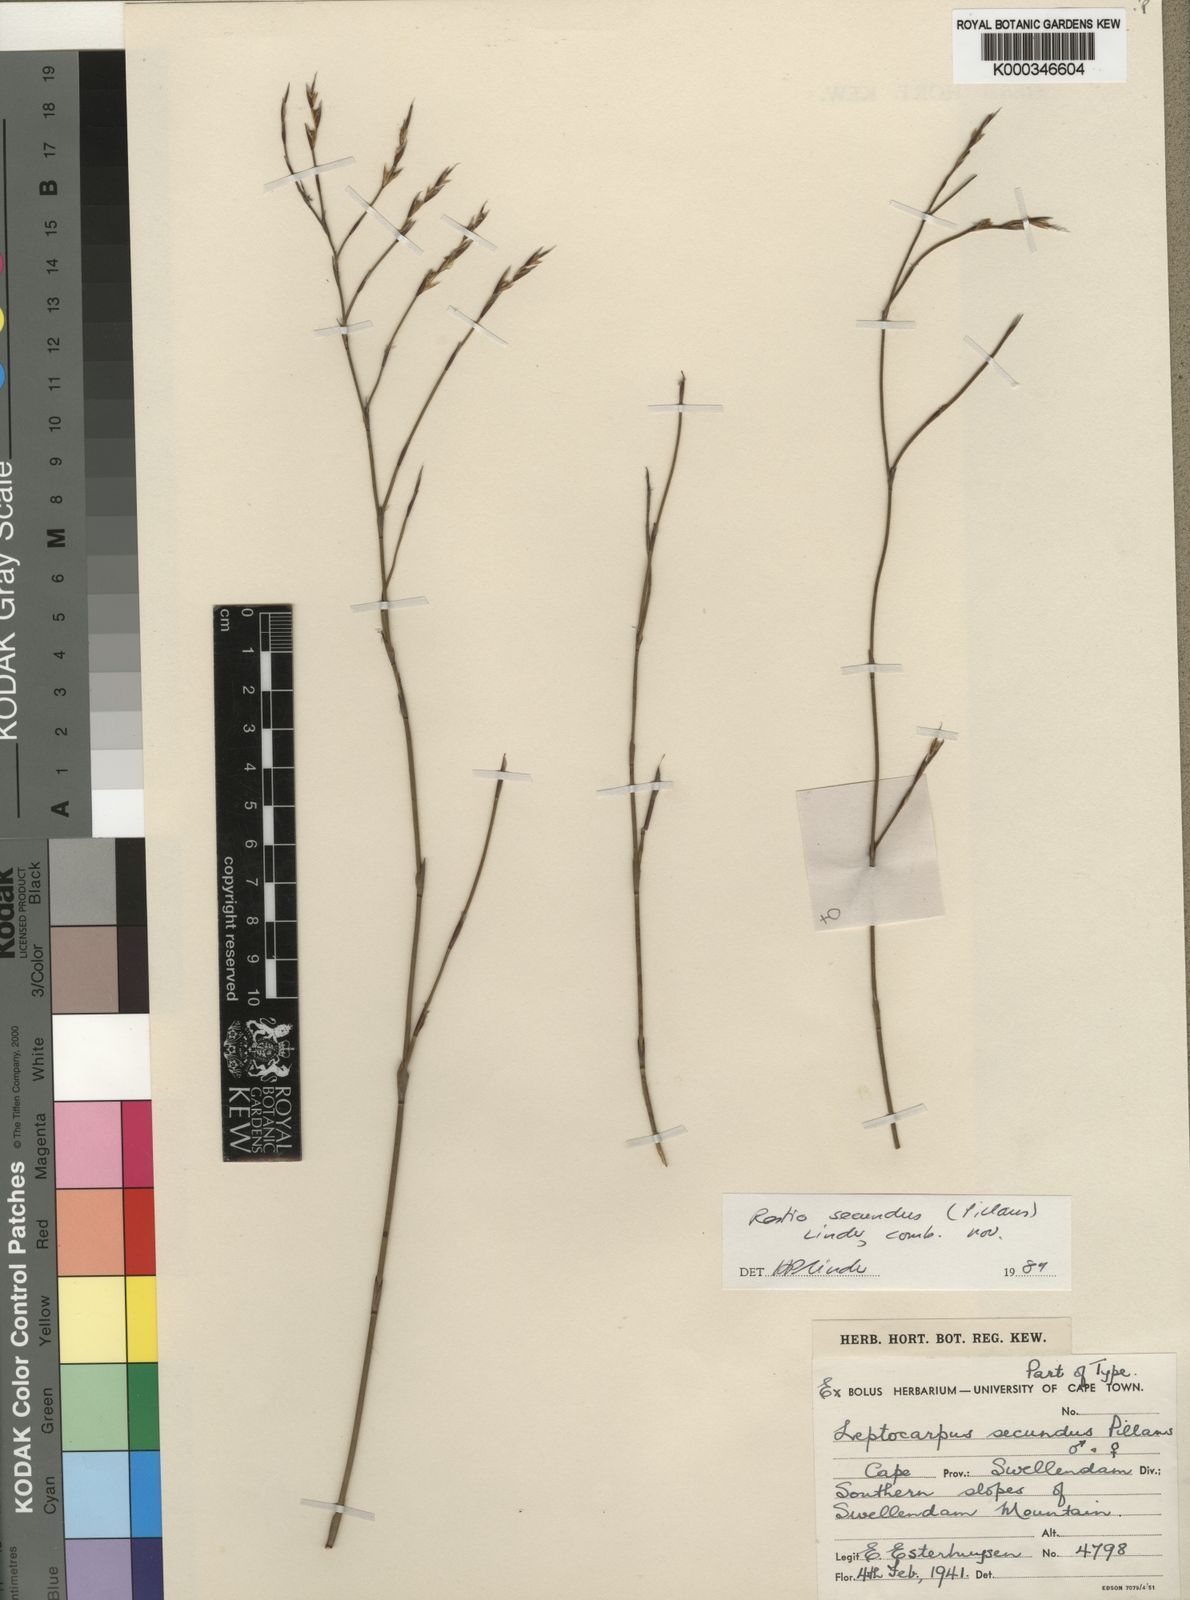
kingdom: Plantae
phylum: Tracheophyta
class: Liliopsida
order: Poales
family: Restionaceae
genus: Restio
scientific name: Restio secundus
